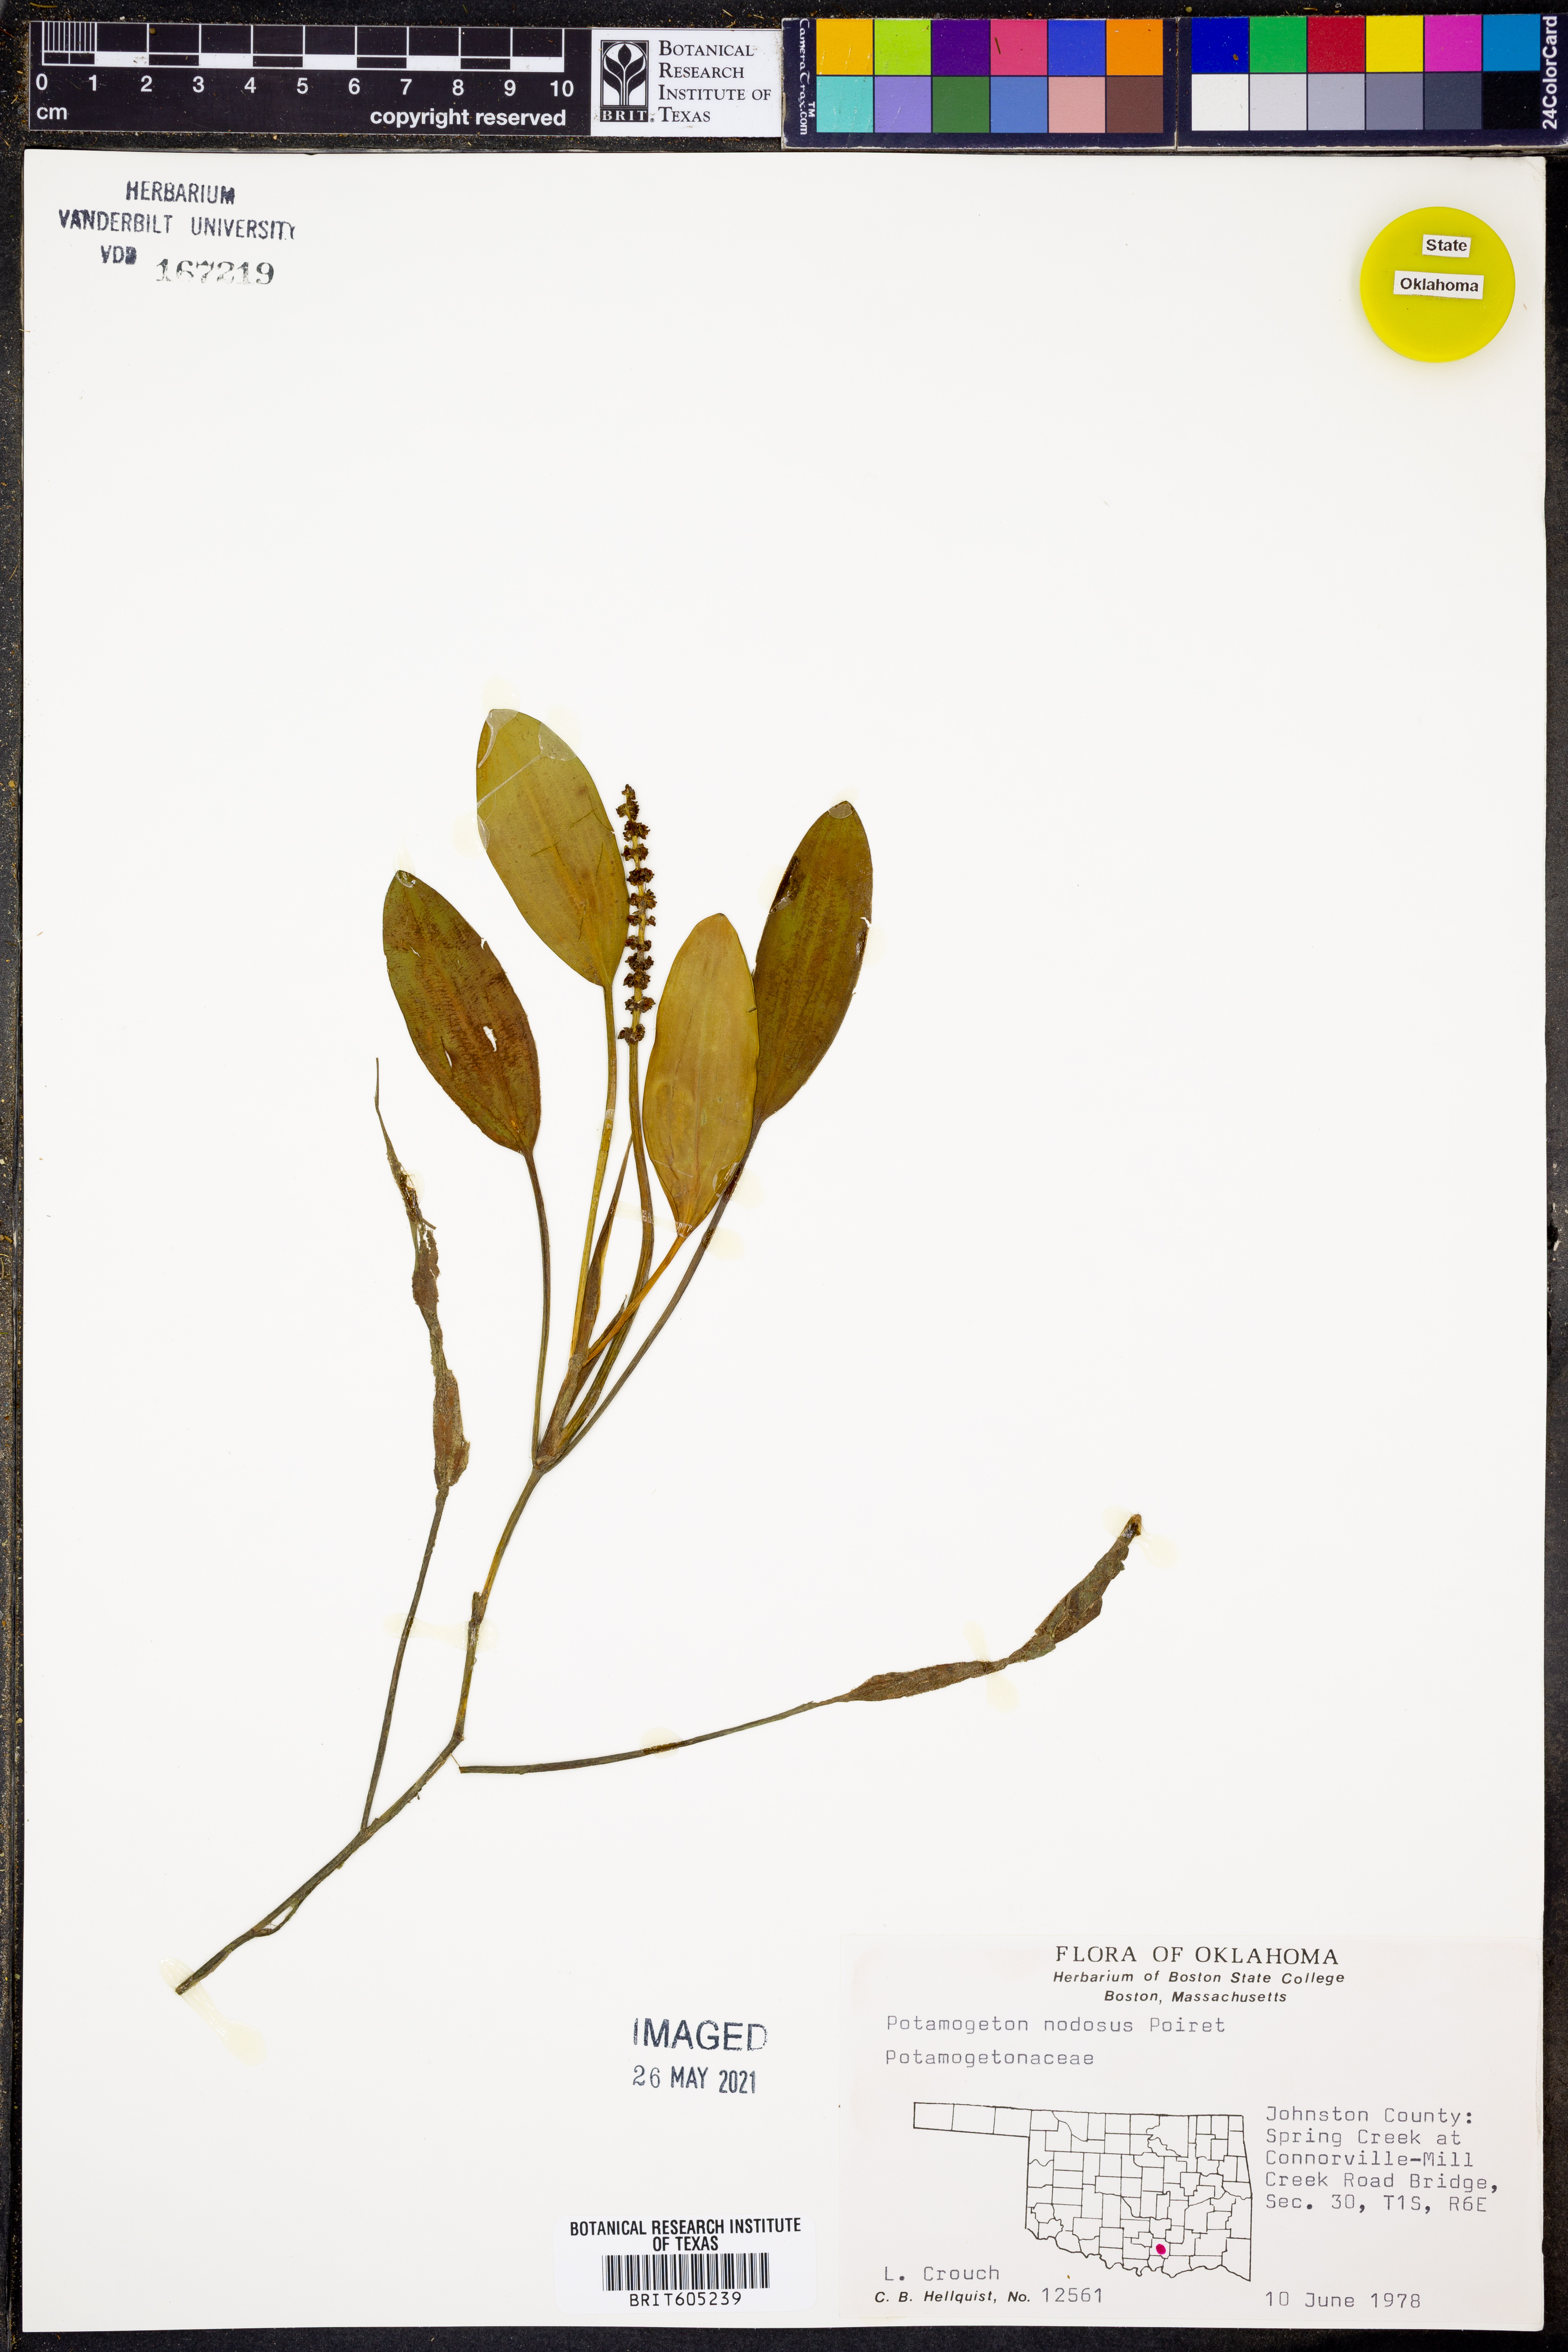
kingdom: Plantae
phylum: Tracheophyta
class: Liliopsida
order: Alismatales
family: Potamogetonaceae
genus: Potamogeton
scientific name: Potamogeton nodosus
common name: Loddon pondweed
